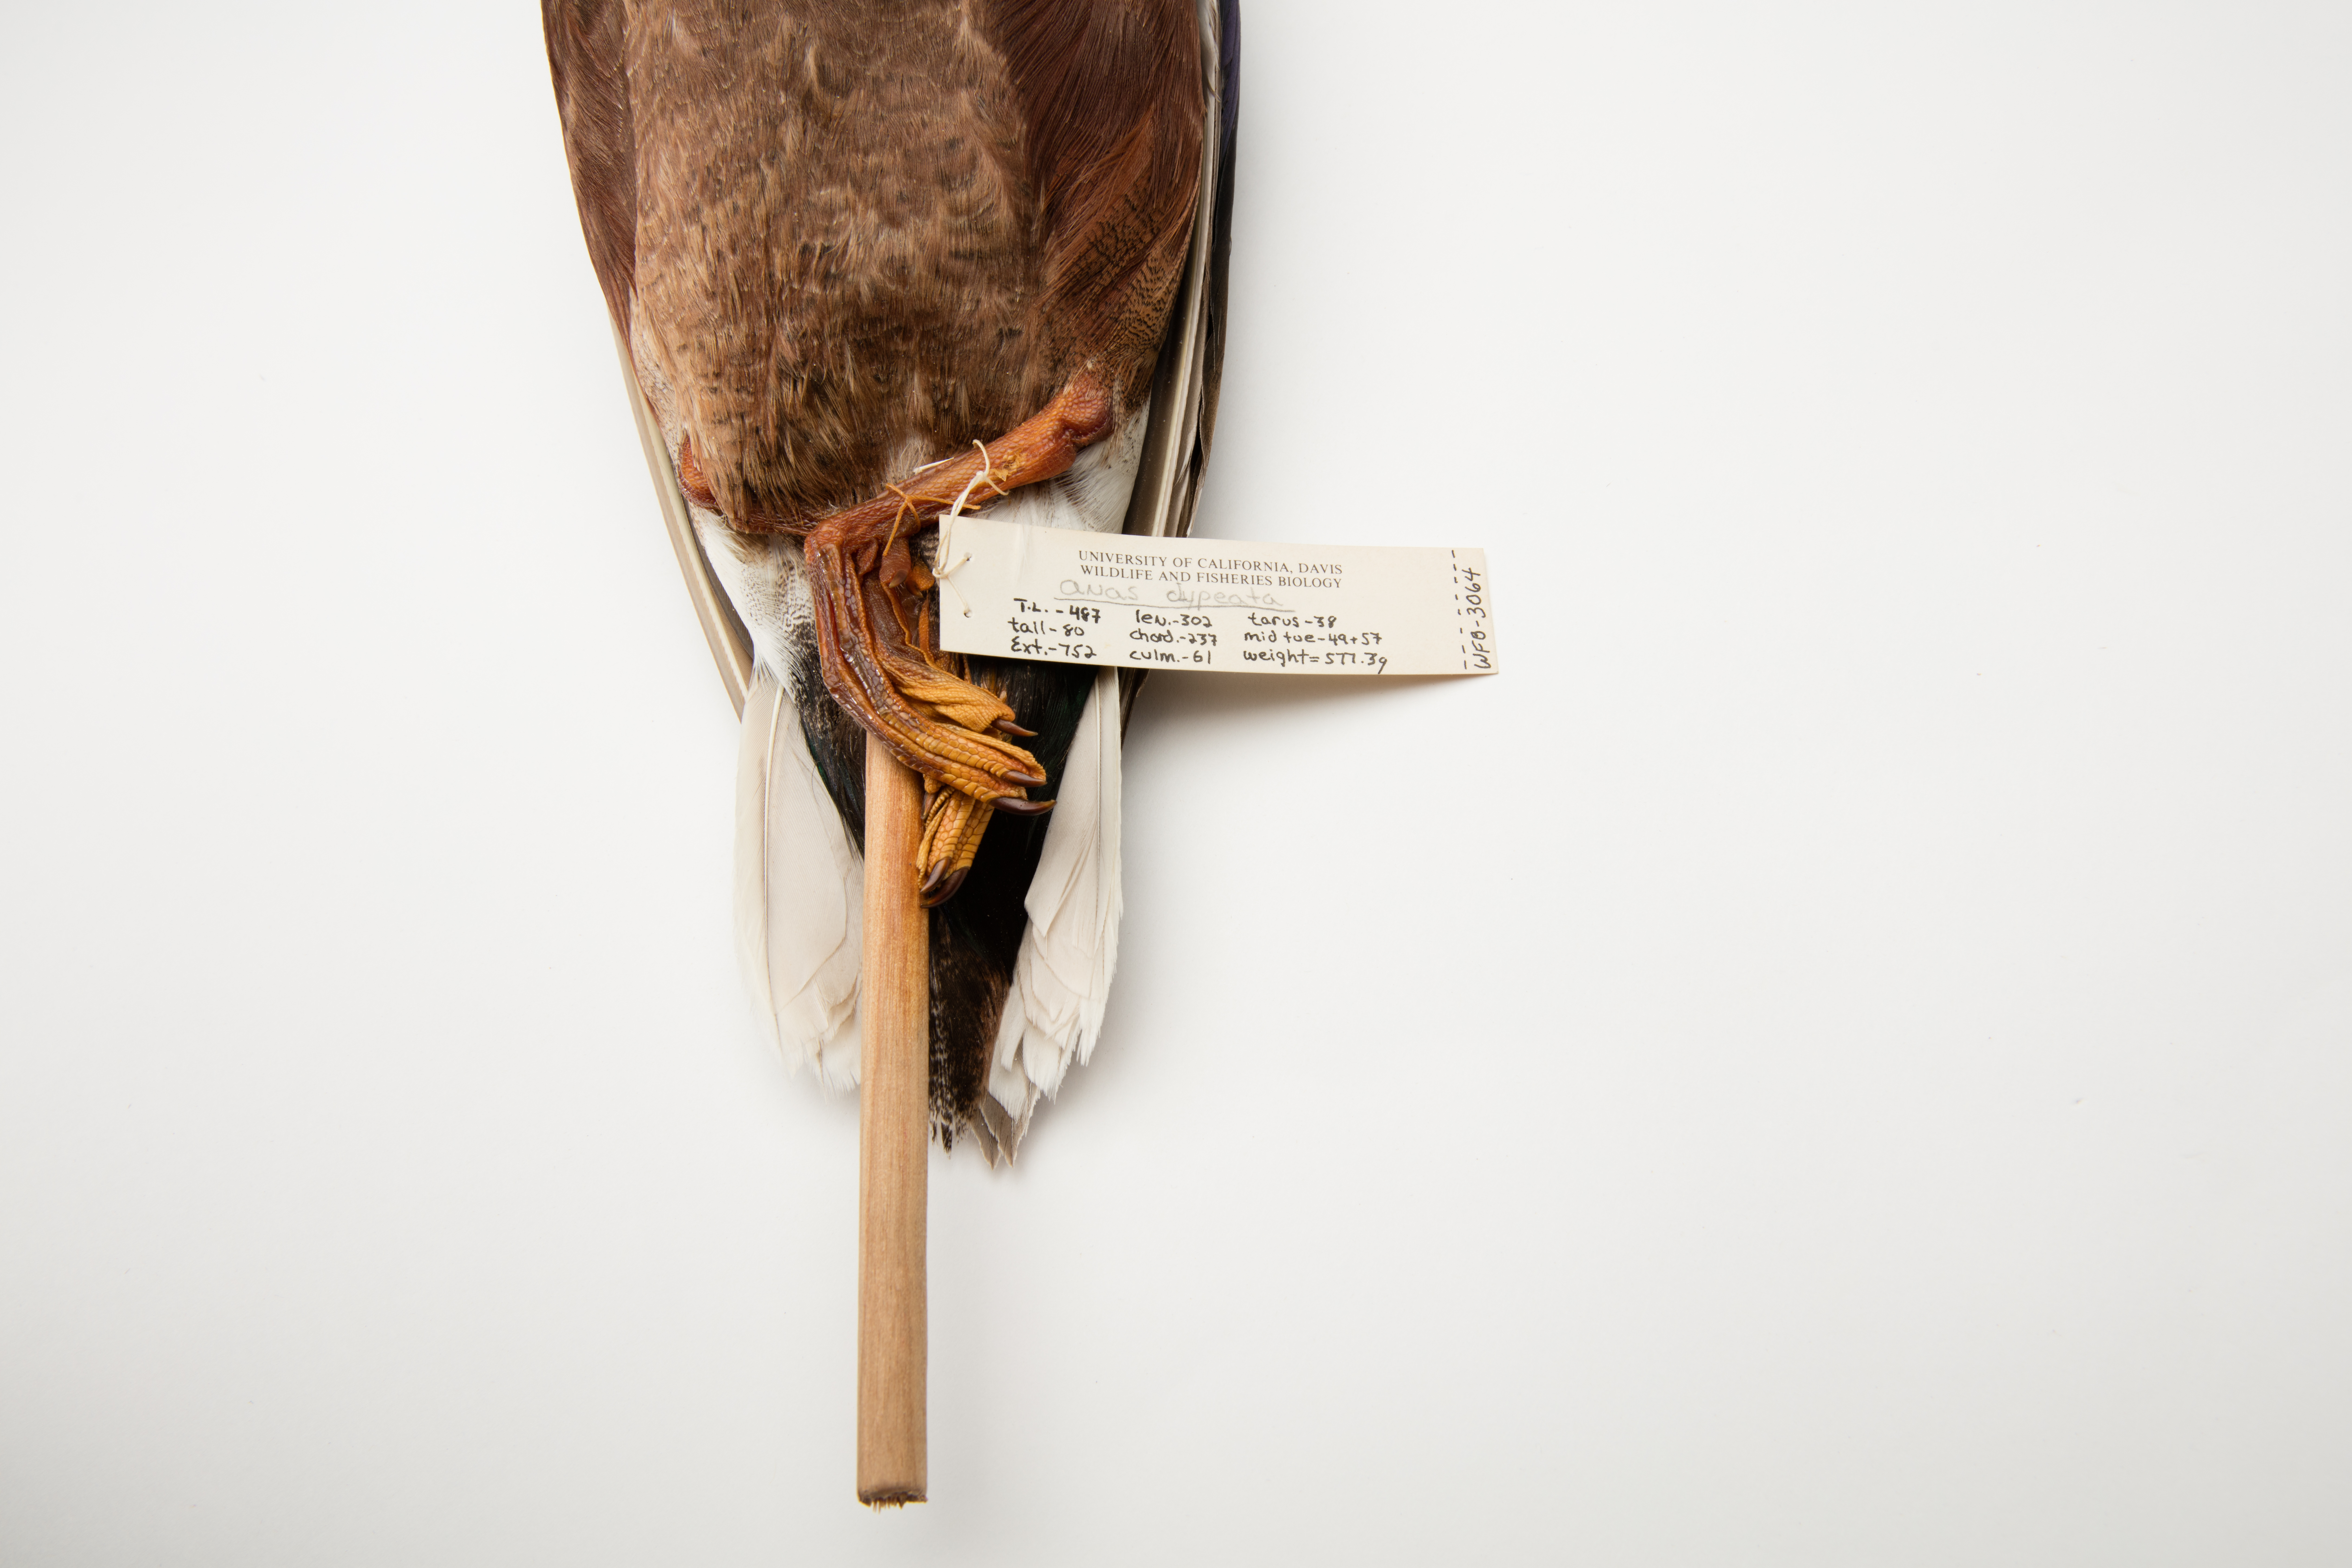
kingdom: Animalia
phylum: Chordata
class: Aves
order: Anseriformes
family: Anatidae
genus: Spatula
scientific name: Spatula clypeata
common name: Northern shoveler
